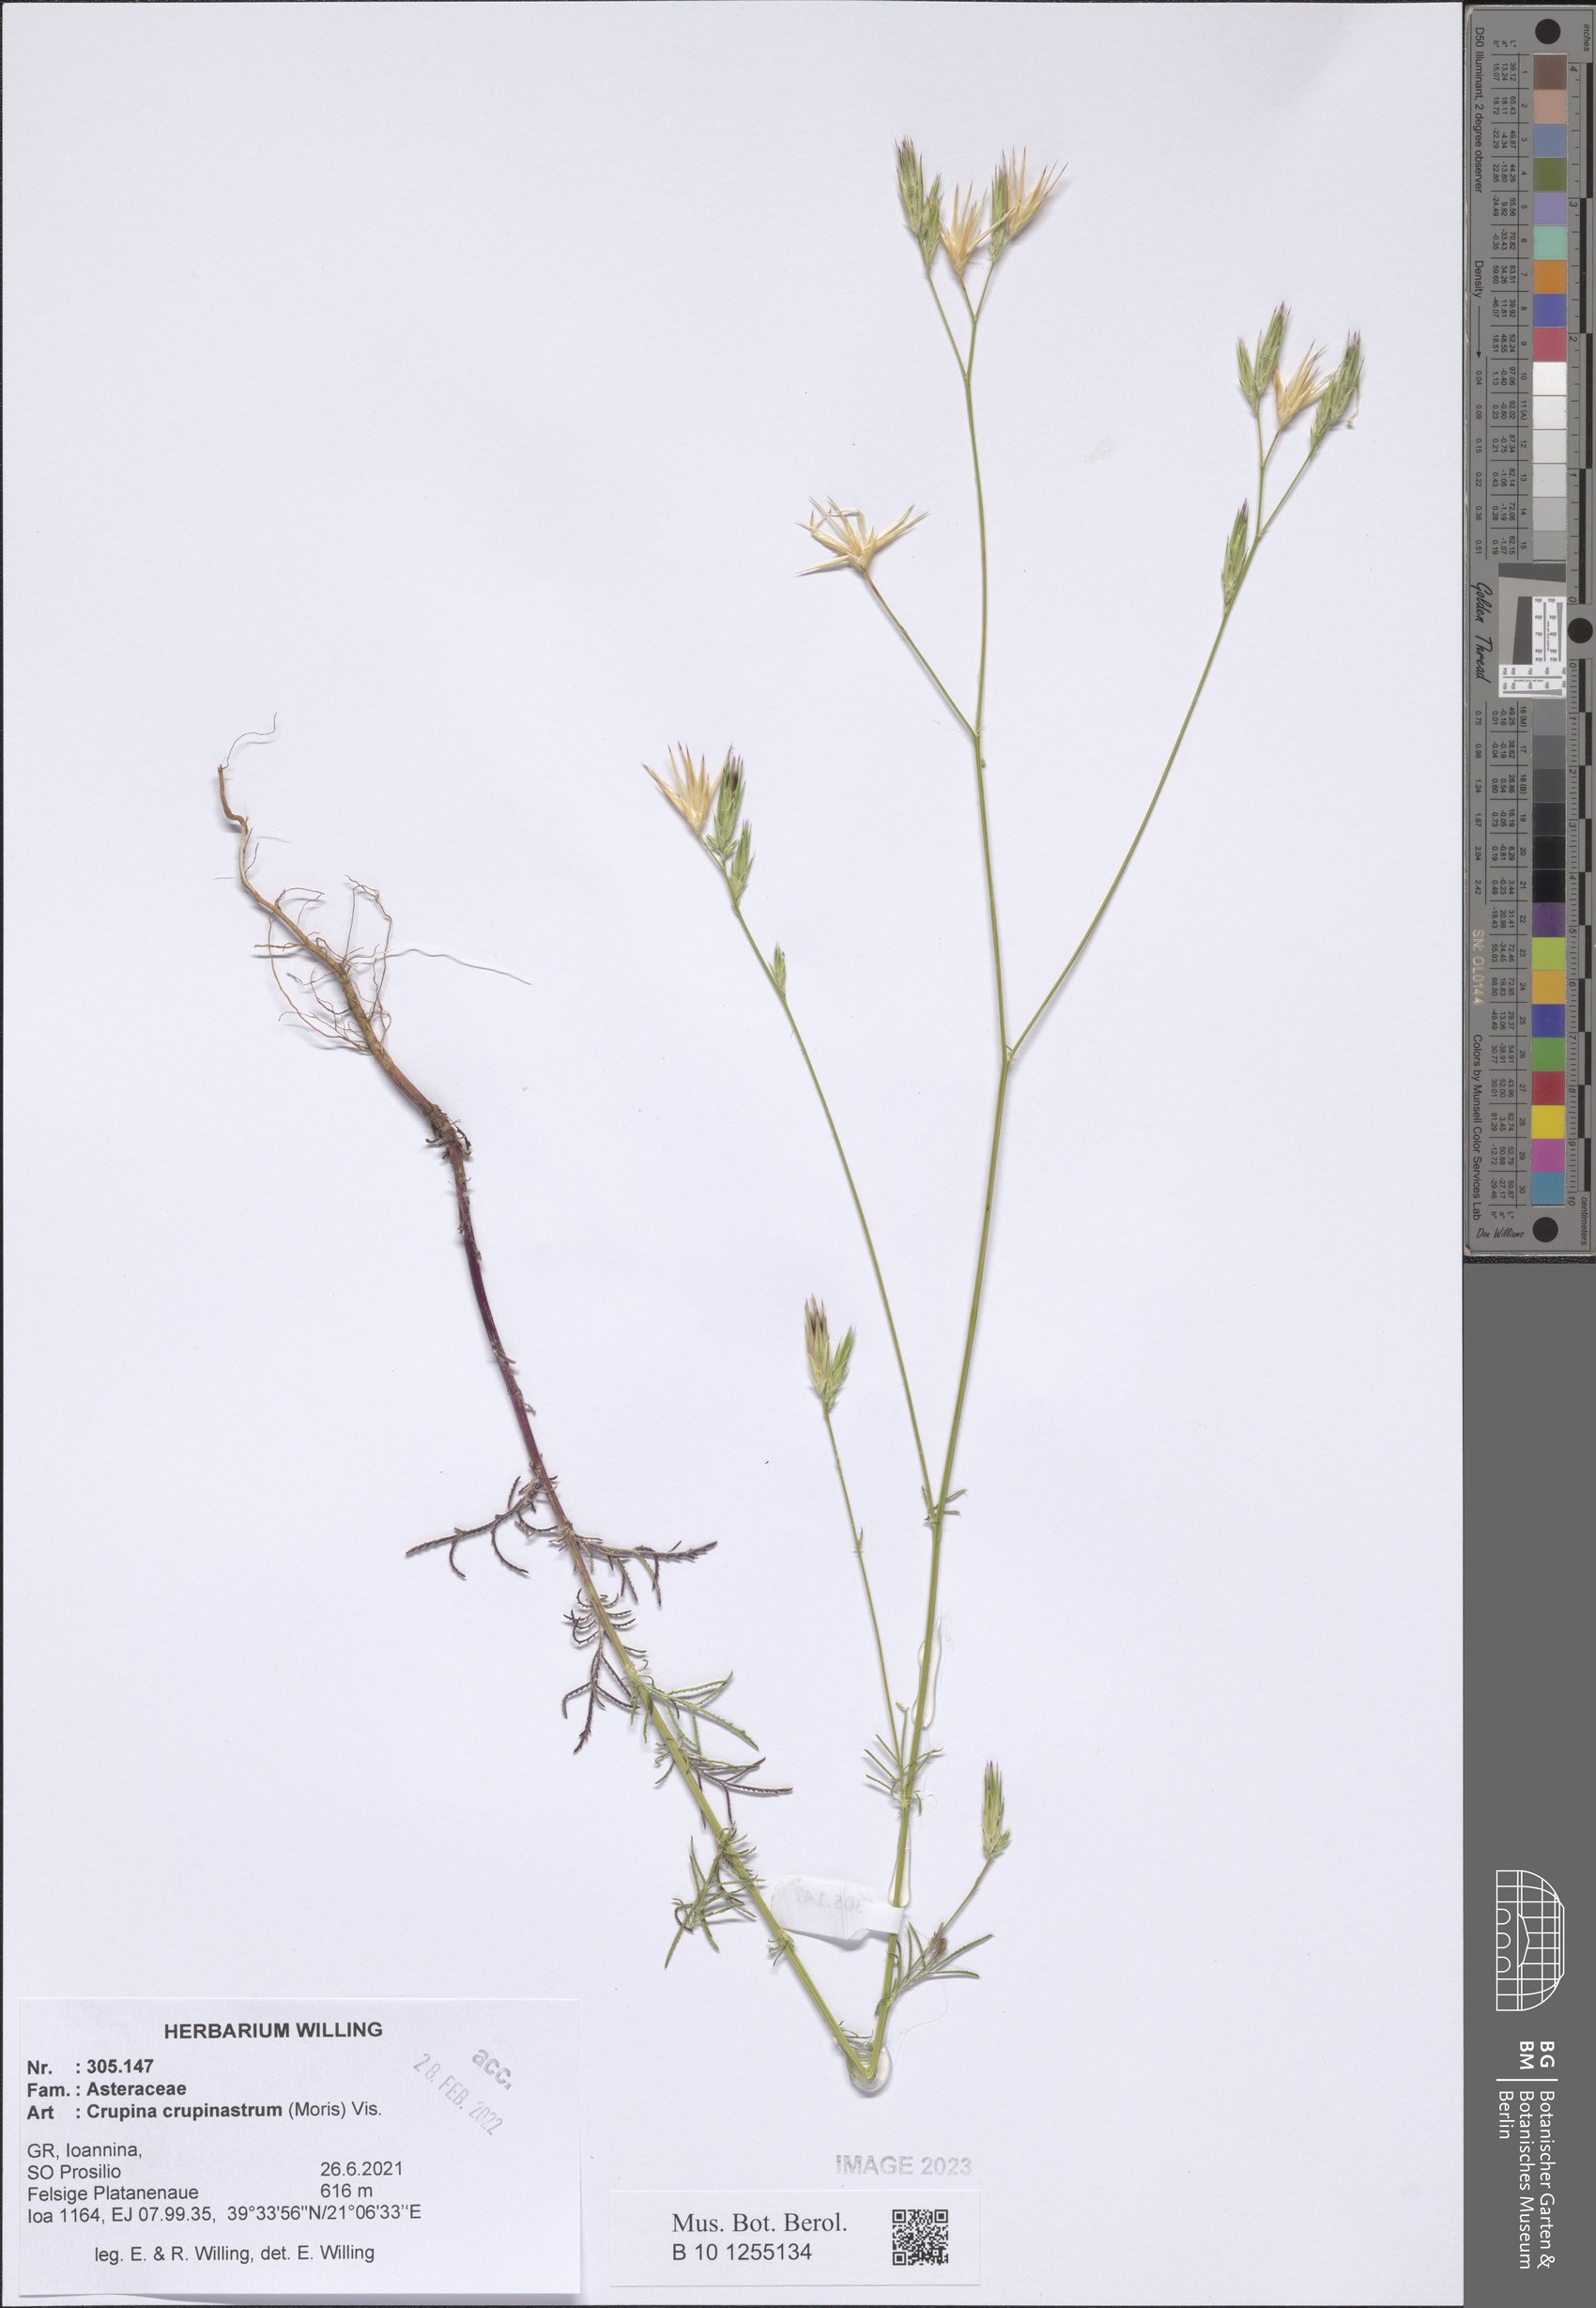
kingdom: Plantae
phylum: Tracheophyta
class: Magnoliopsida
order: Asterales
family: Asteraceae
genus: Crupina
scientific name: Crupina crupinastrum
